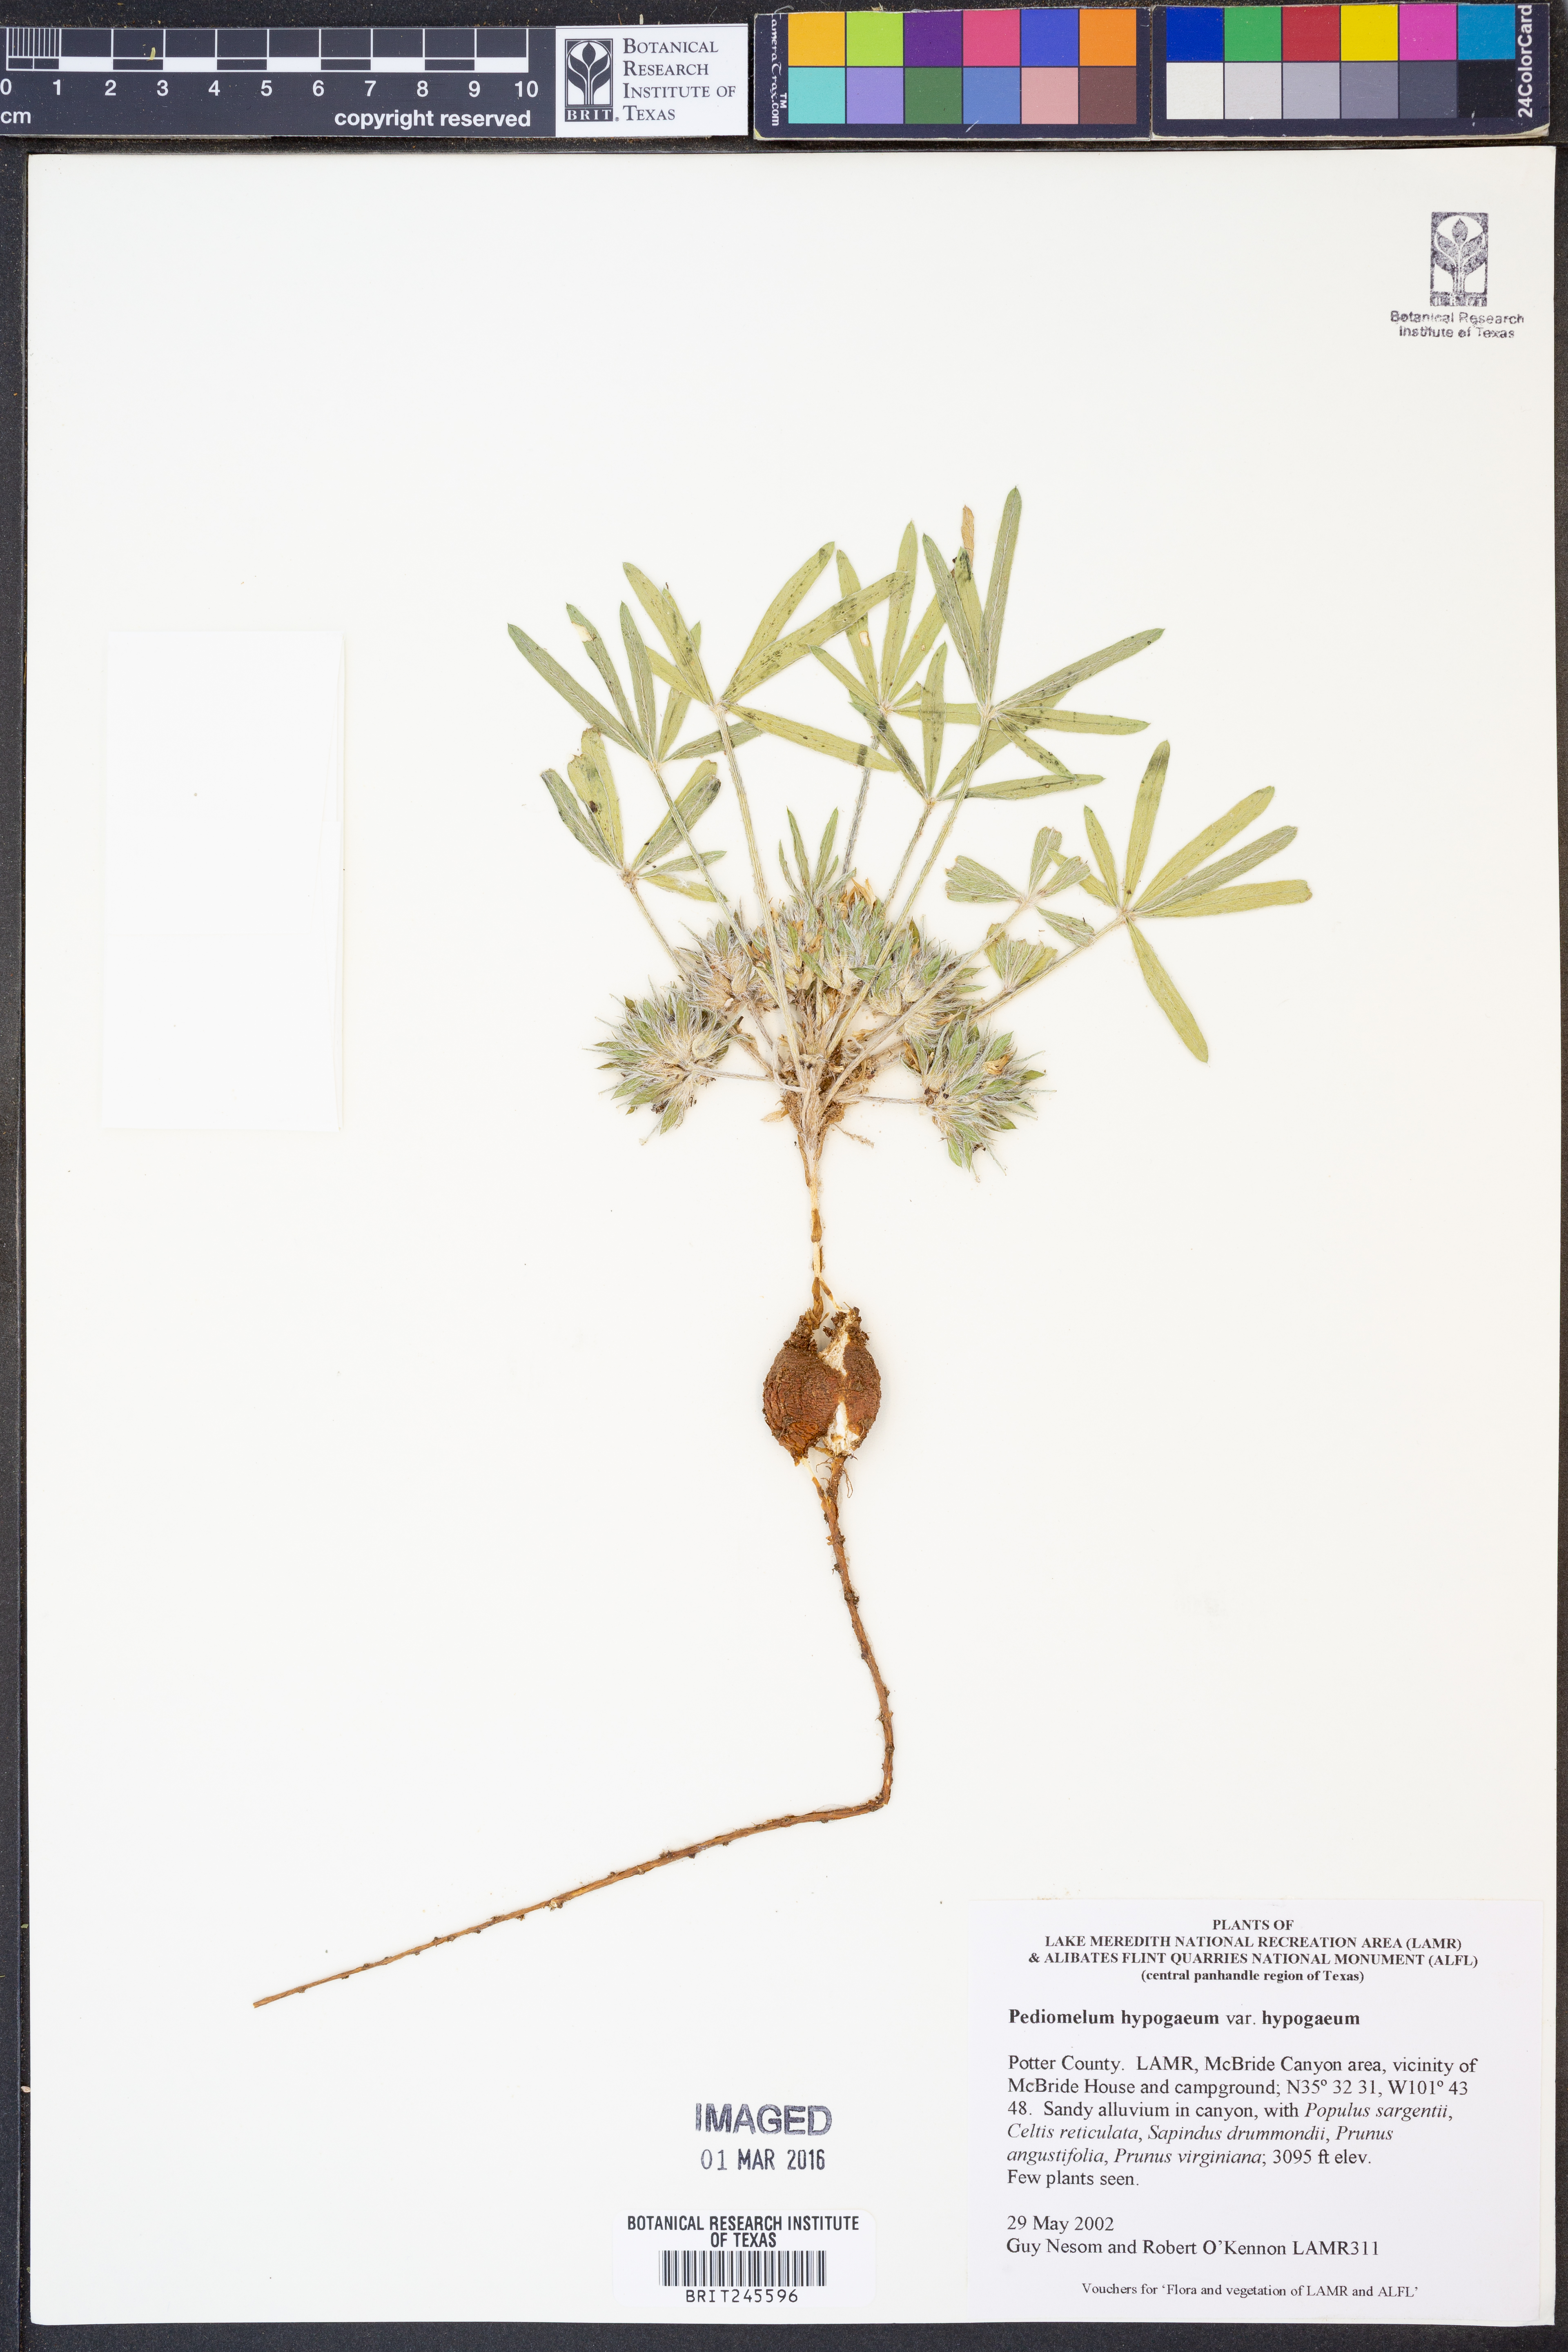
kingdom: Plantae
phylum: Tracheophyta
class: Magnoliopsida
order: Fabales
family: Fabaceae
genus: Pediomelum
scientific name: Pediomelum hypogaeum
